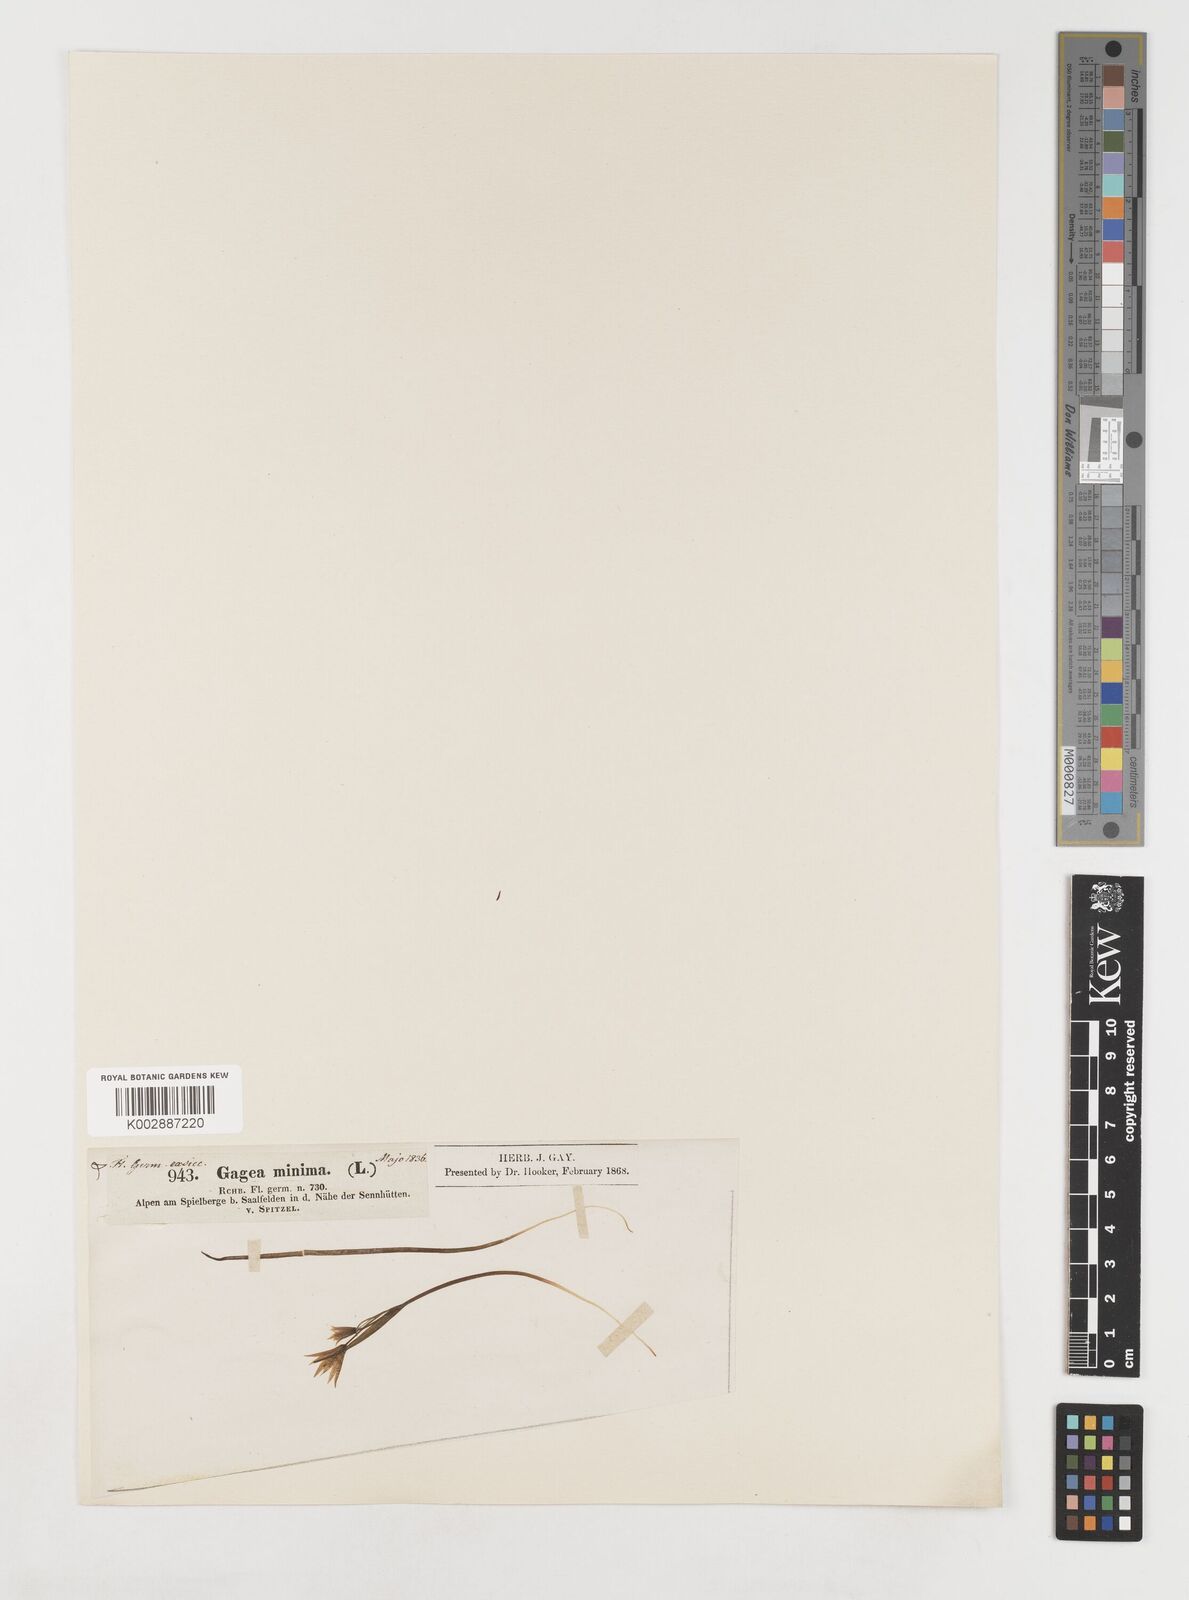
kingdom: Plantae
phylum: Tracheophyta
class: Liliopsida
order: Liliales
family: Liliaceae
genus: Gagea
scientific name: Gagea minima
